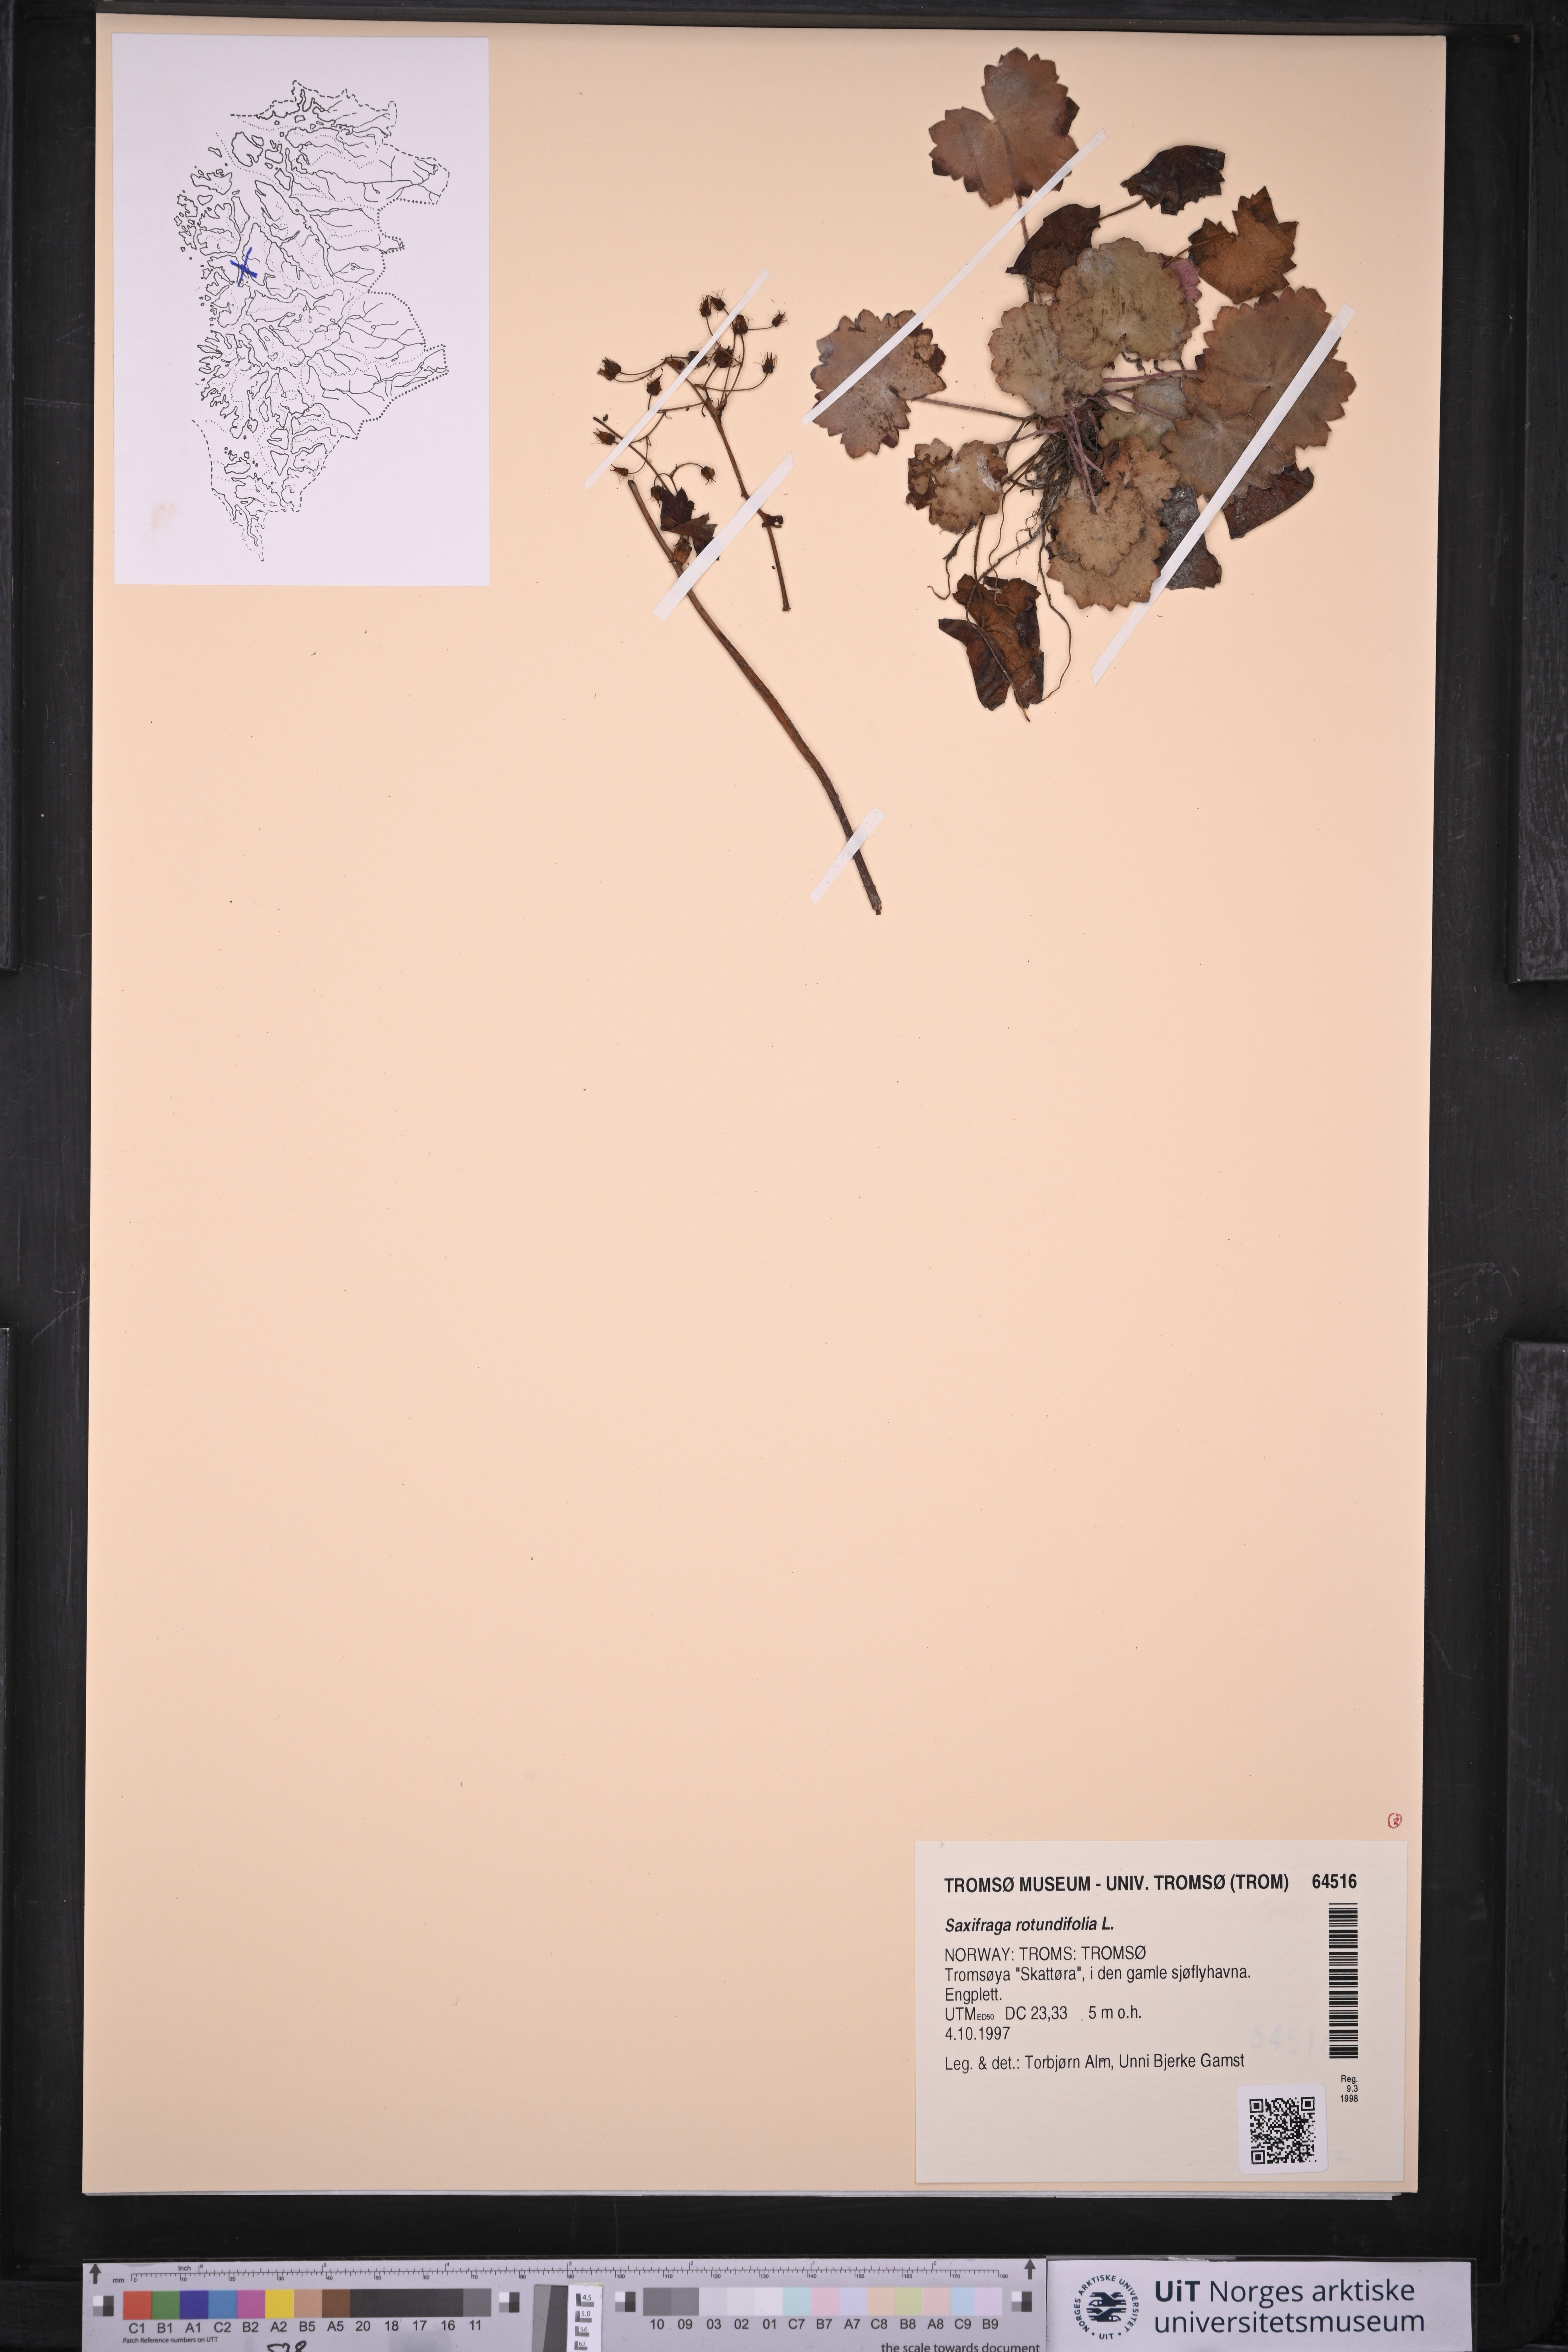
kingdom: Plantae
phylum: Tracheophyta
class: Magnoliopsida
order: Saxifragales
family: Saxifragaceae
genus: Saxifraga
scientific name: Saxifraga rotundifolia
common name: Round-leaved saxifrage
